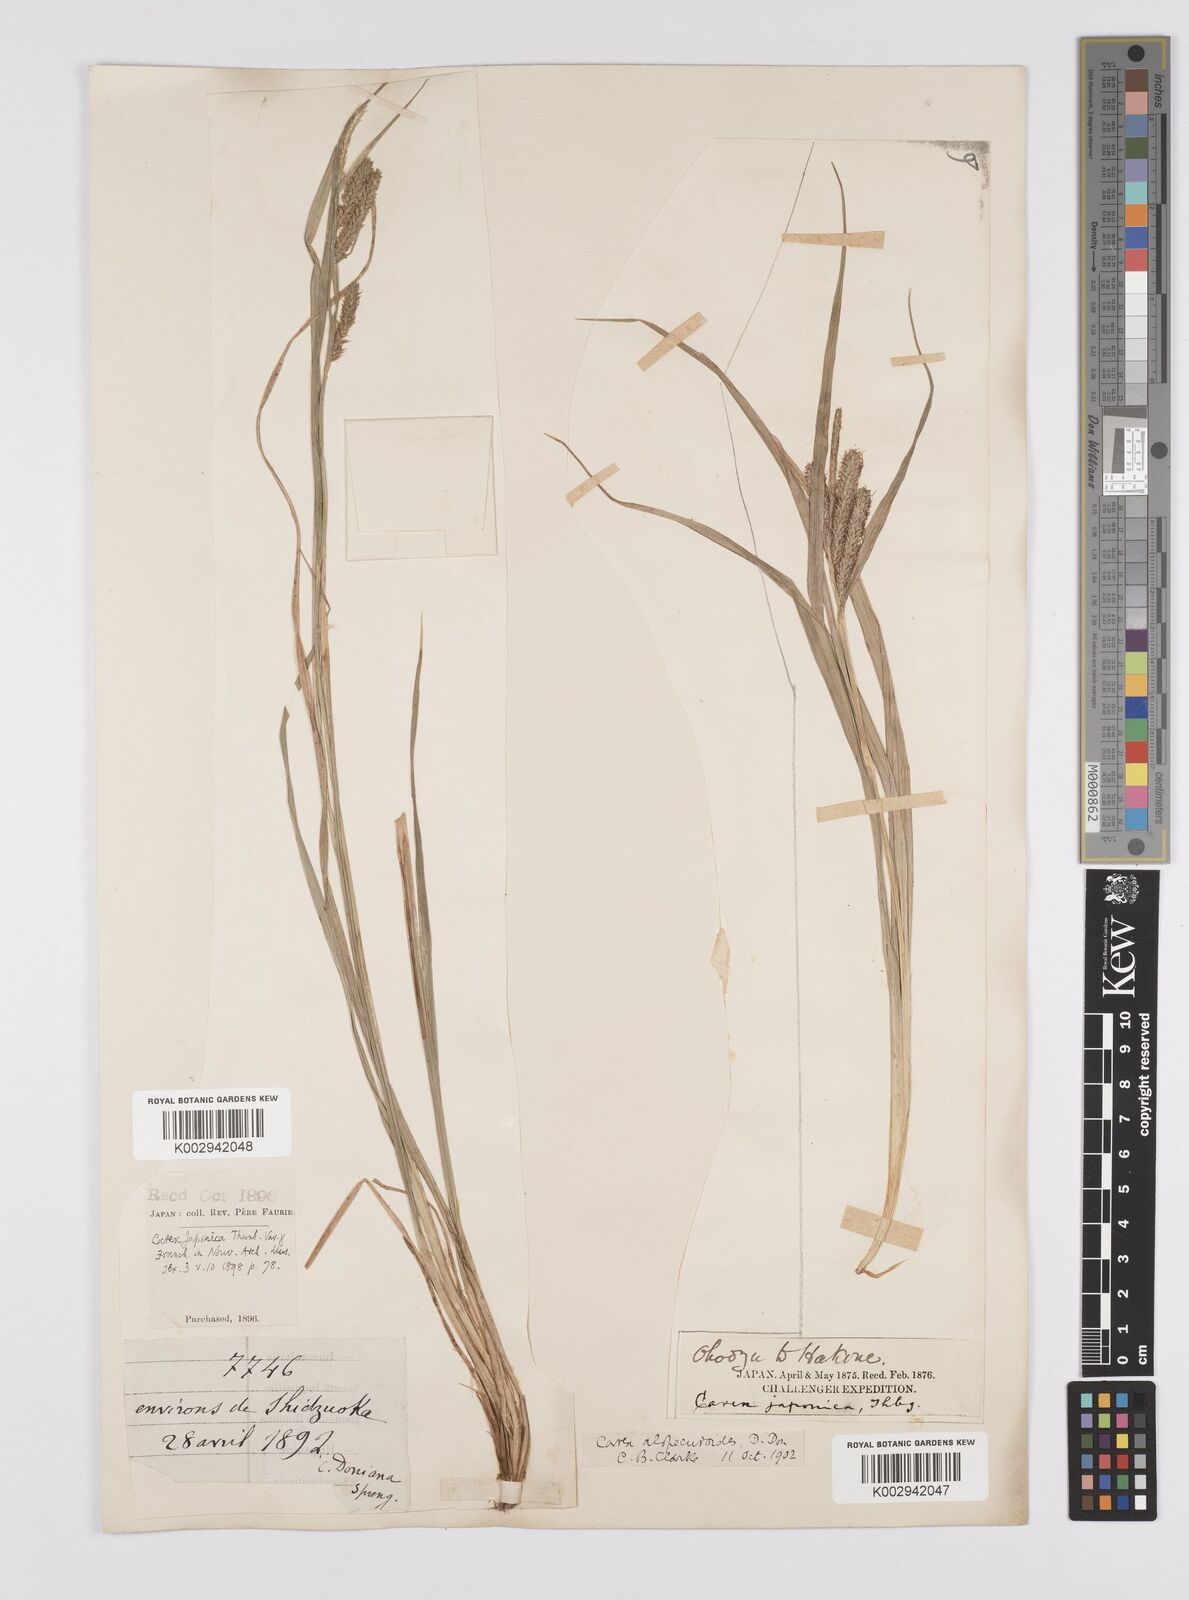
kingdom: Plantae
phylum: Tracheophyta
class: Liliopsida
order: Poales
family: Cyperaceae
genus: Carex
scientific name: Carex japonica
